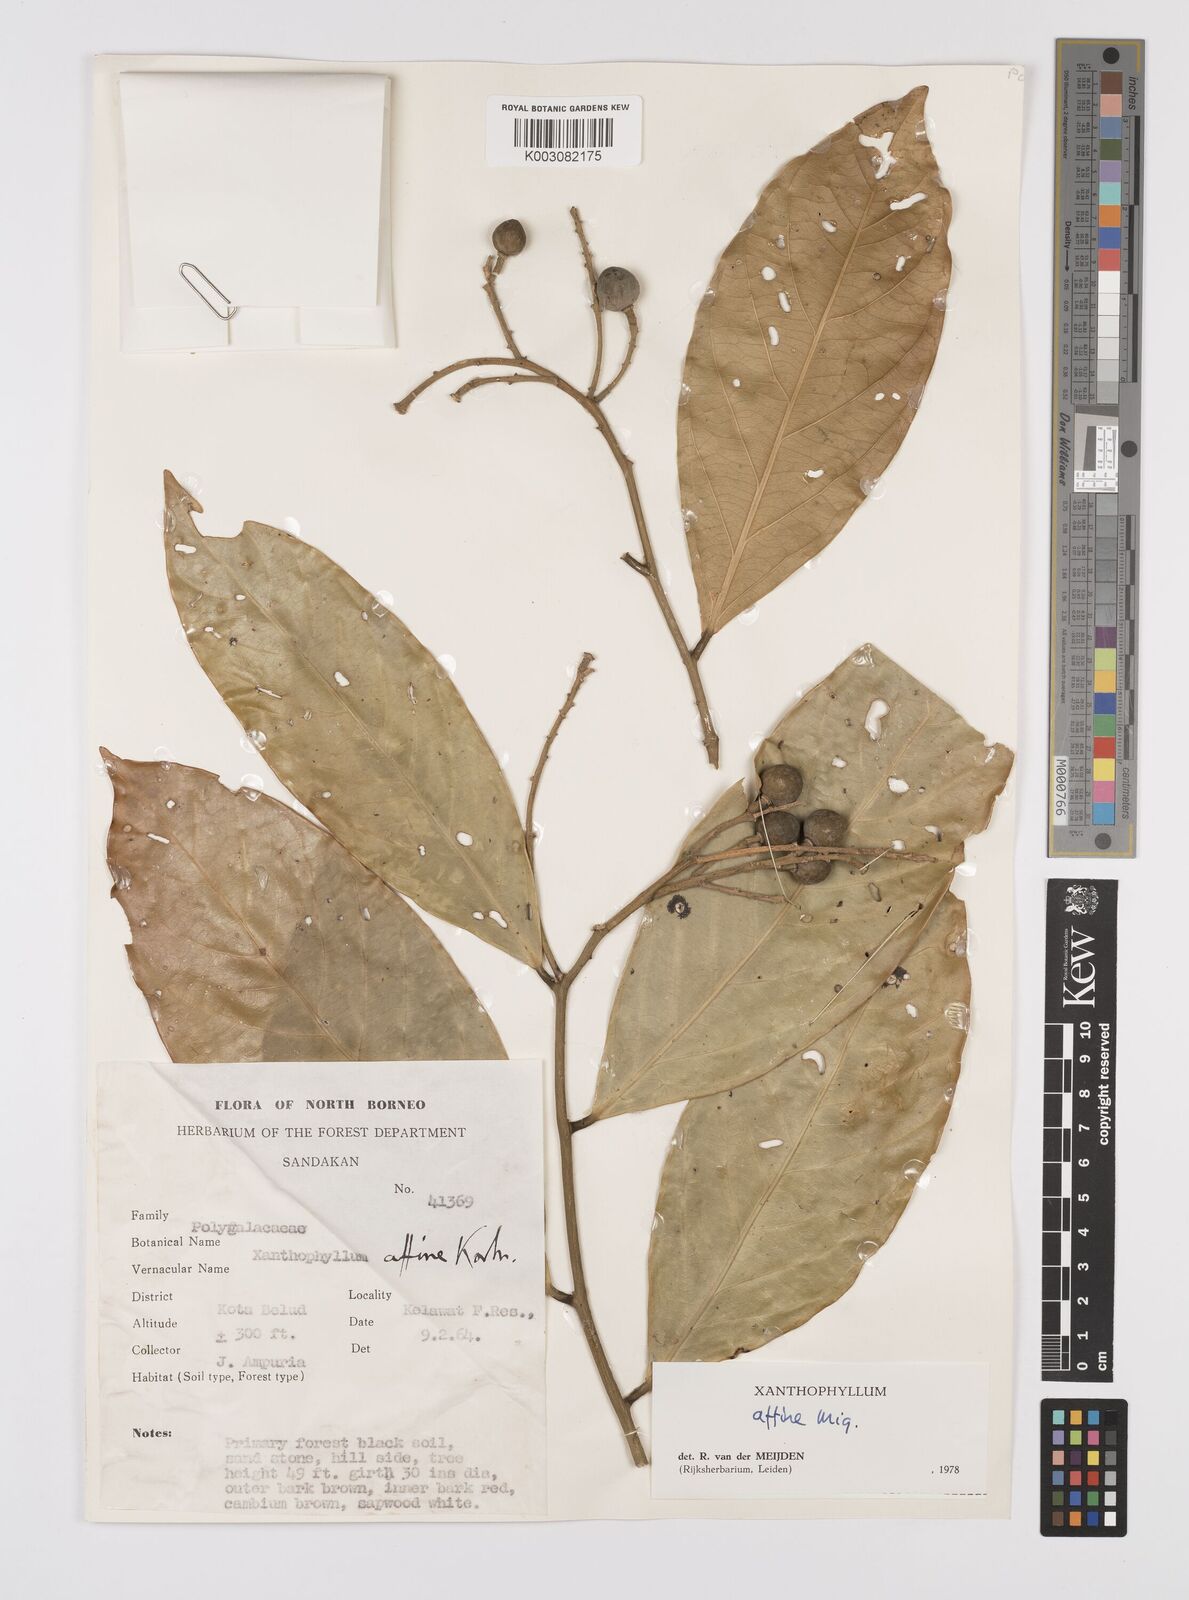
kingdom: Plantae
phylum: Tracheophyta
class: Magnoliopsida
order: Fabales
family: Polygalaceae
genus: Xanthophyllum
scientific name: Xanthophyllum flavescens
